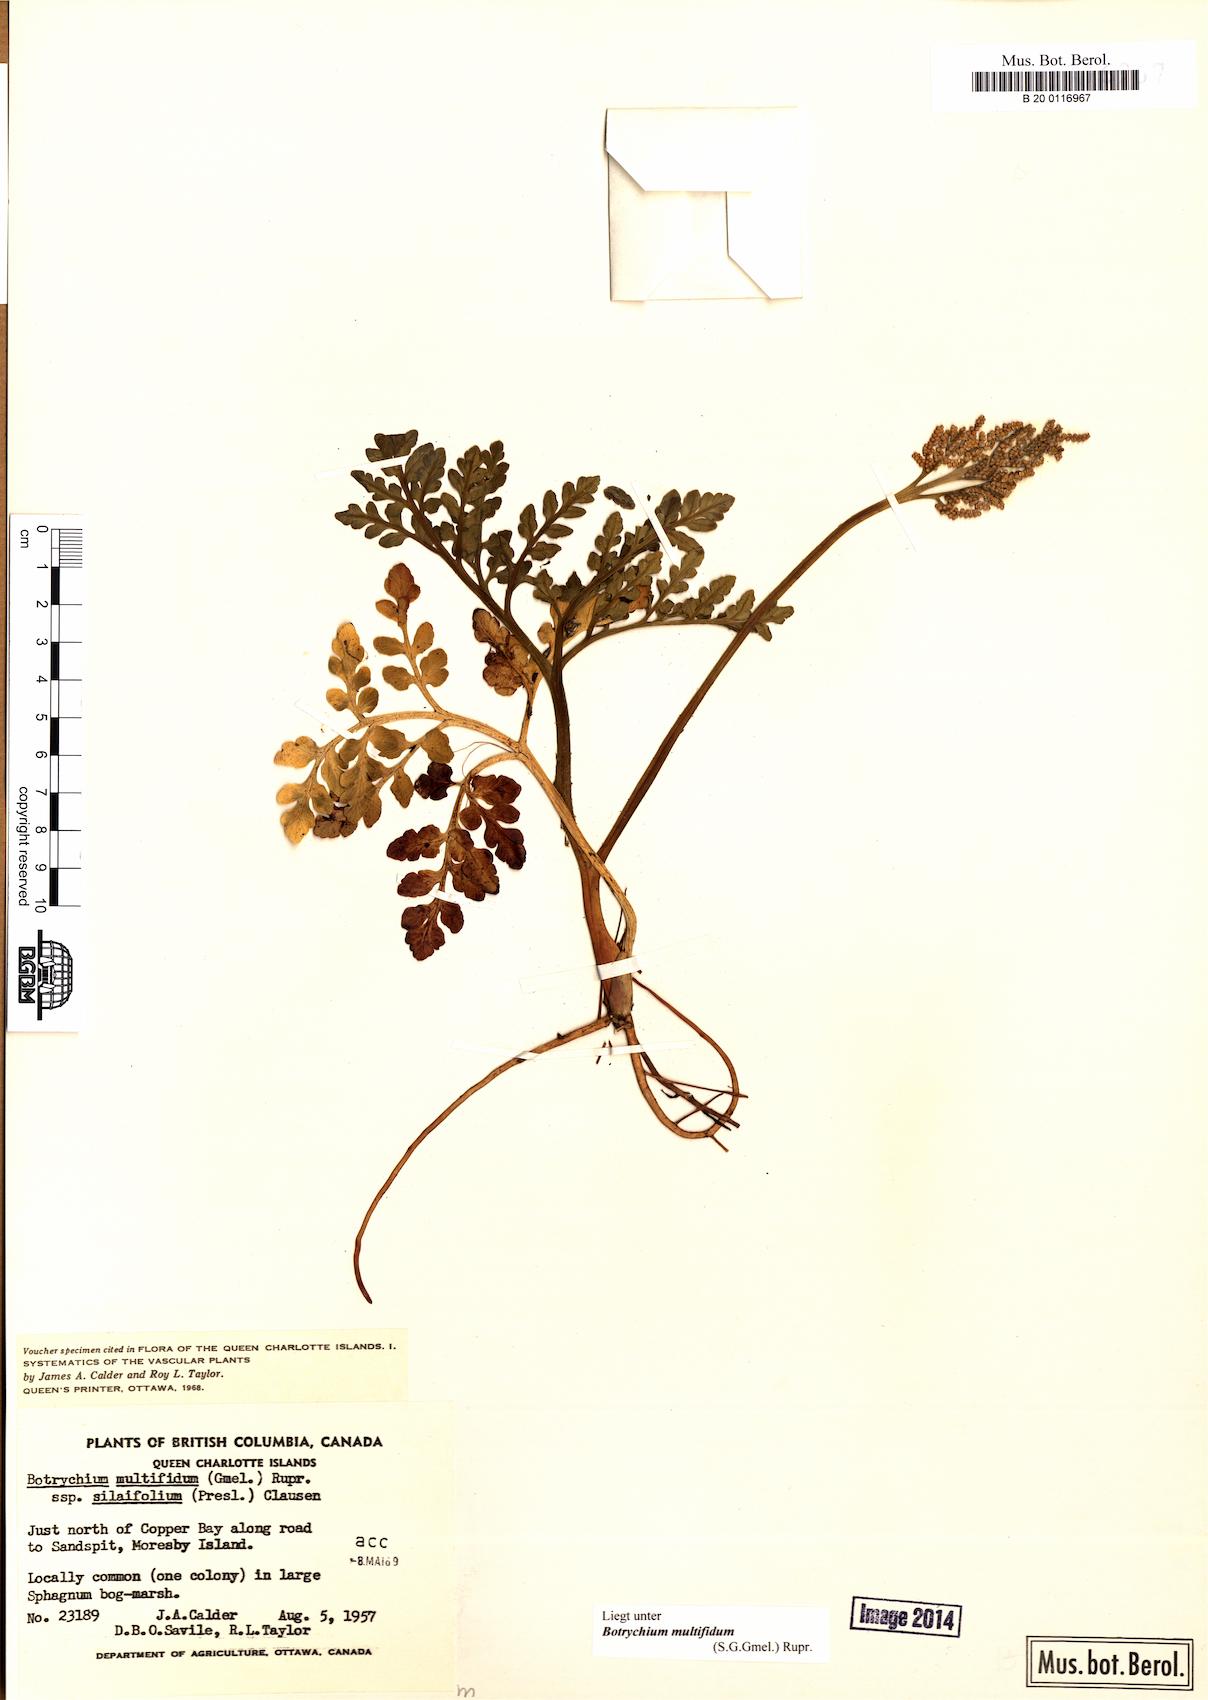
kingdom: Plantae
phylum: Tracheophyta
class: Polypodiopsida
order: Ophioglossales
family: Ophioglossaceae
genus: Sceptridium
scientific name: Sceptridium multifidum
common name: Leathery grape fern
